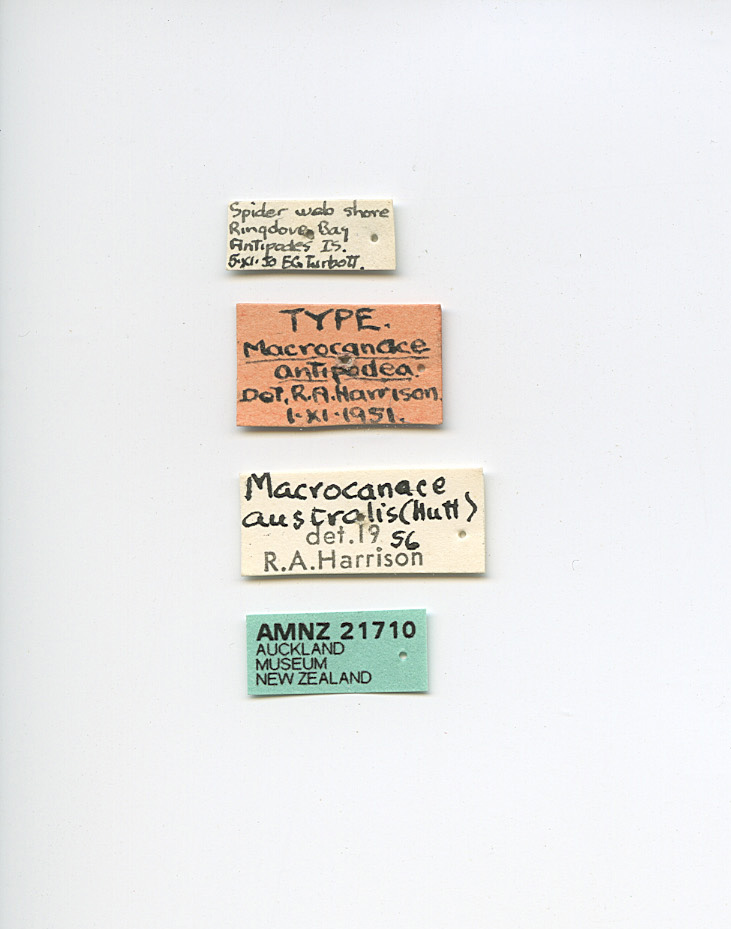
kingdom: Animalia
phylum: Arthropoda
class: Insecta
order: Diptera
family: Canacidae
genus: Apetaenus
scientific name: Apetaenus australis
